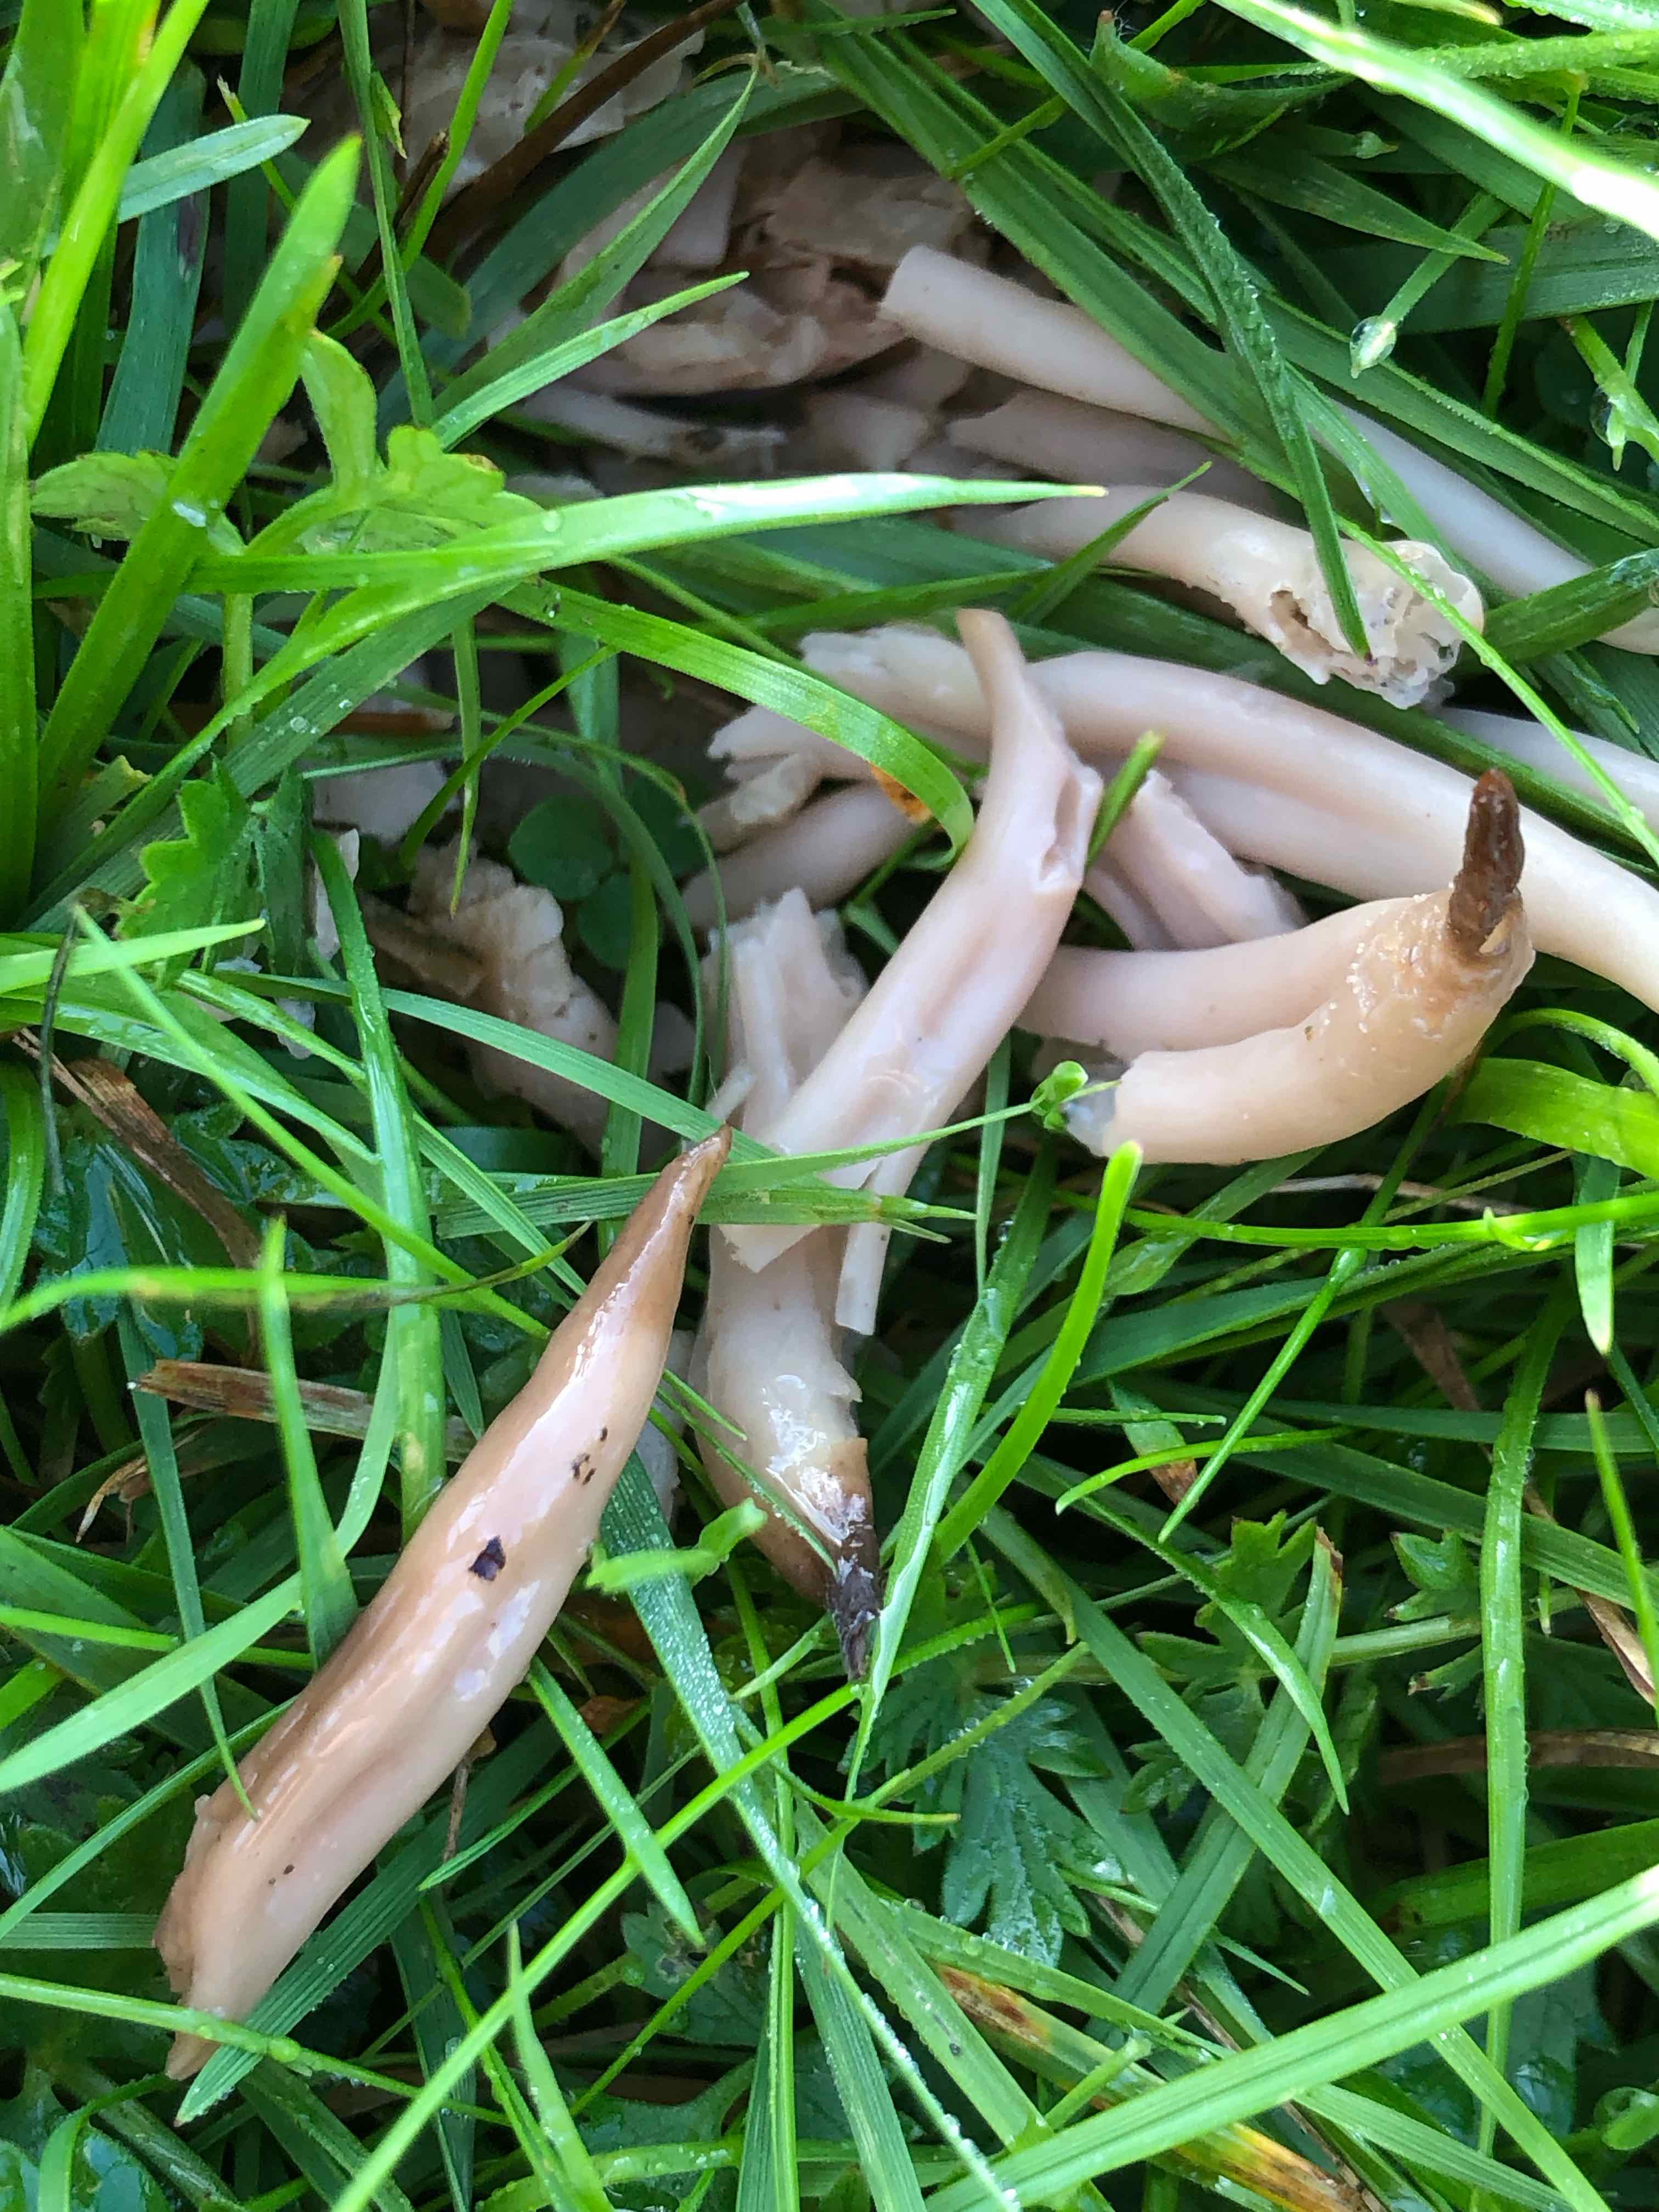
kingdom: Fungi
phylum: Basidiomycota
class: Agaricomycetes
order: Agaricales
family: Clavariaceae
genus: Clavaria
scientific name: Clavaria fumosa
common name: røggrå køllesvamp
